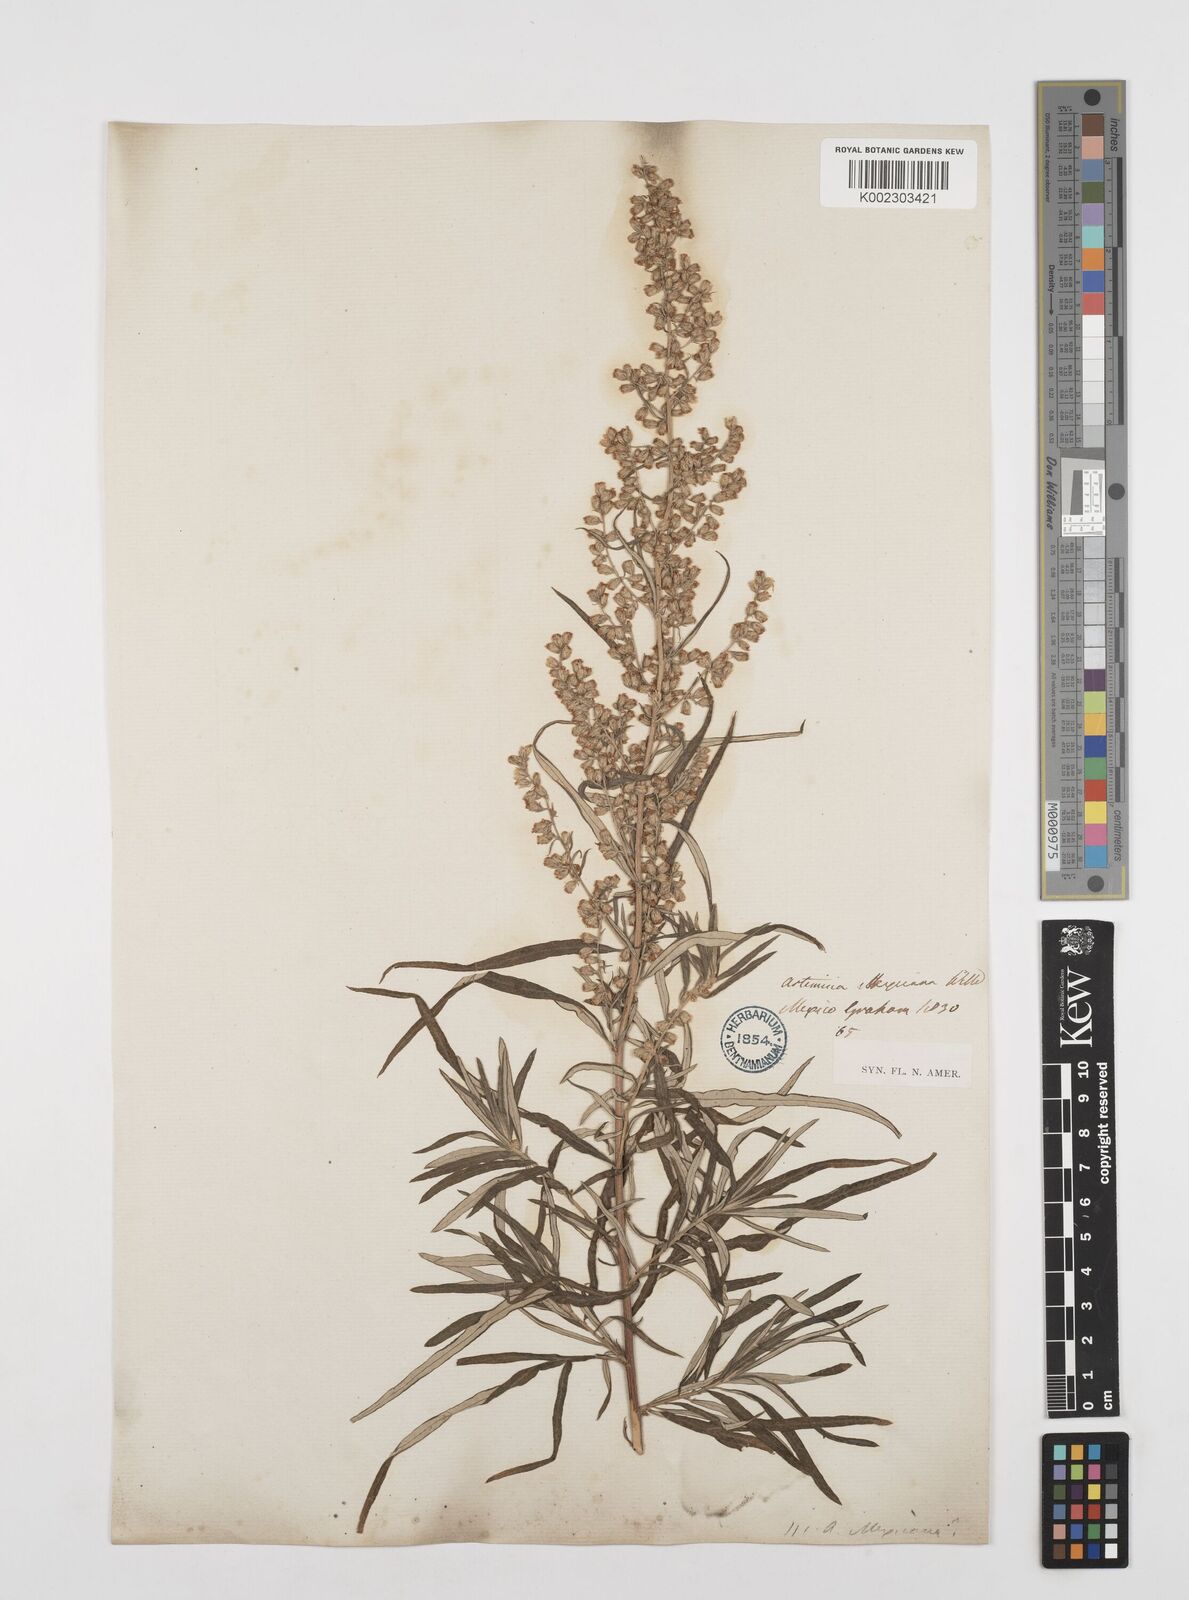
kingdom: Plantae
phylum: Tracheophyta
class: Magnoliopsida
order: Asterales
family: Asteraceae
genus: Artemisia
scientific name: Artemisia ludoviciana
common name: Western mugwort
